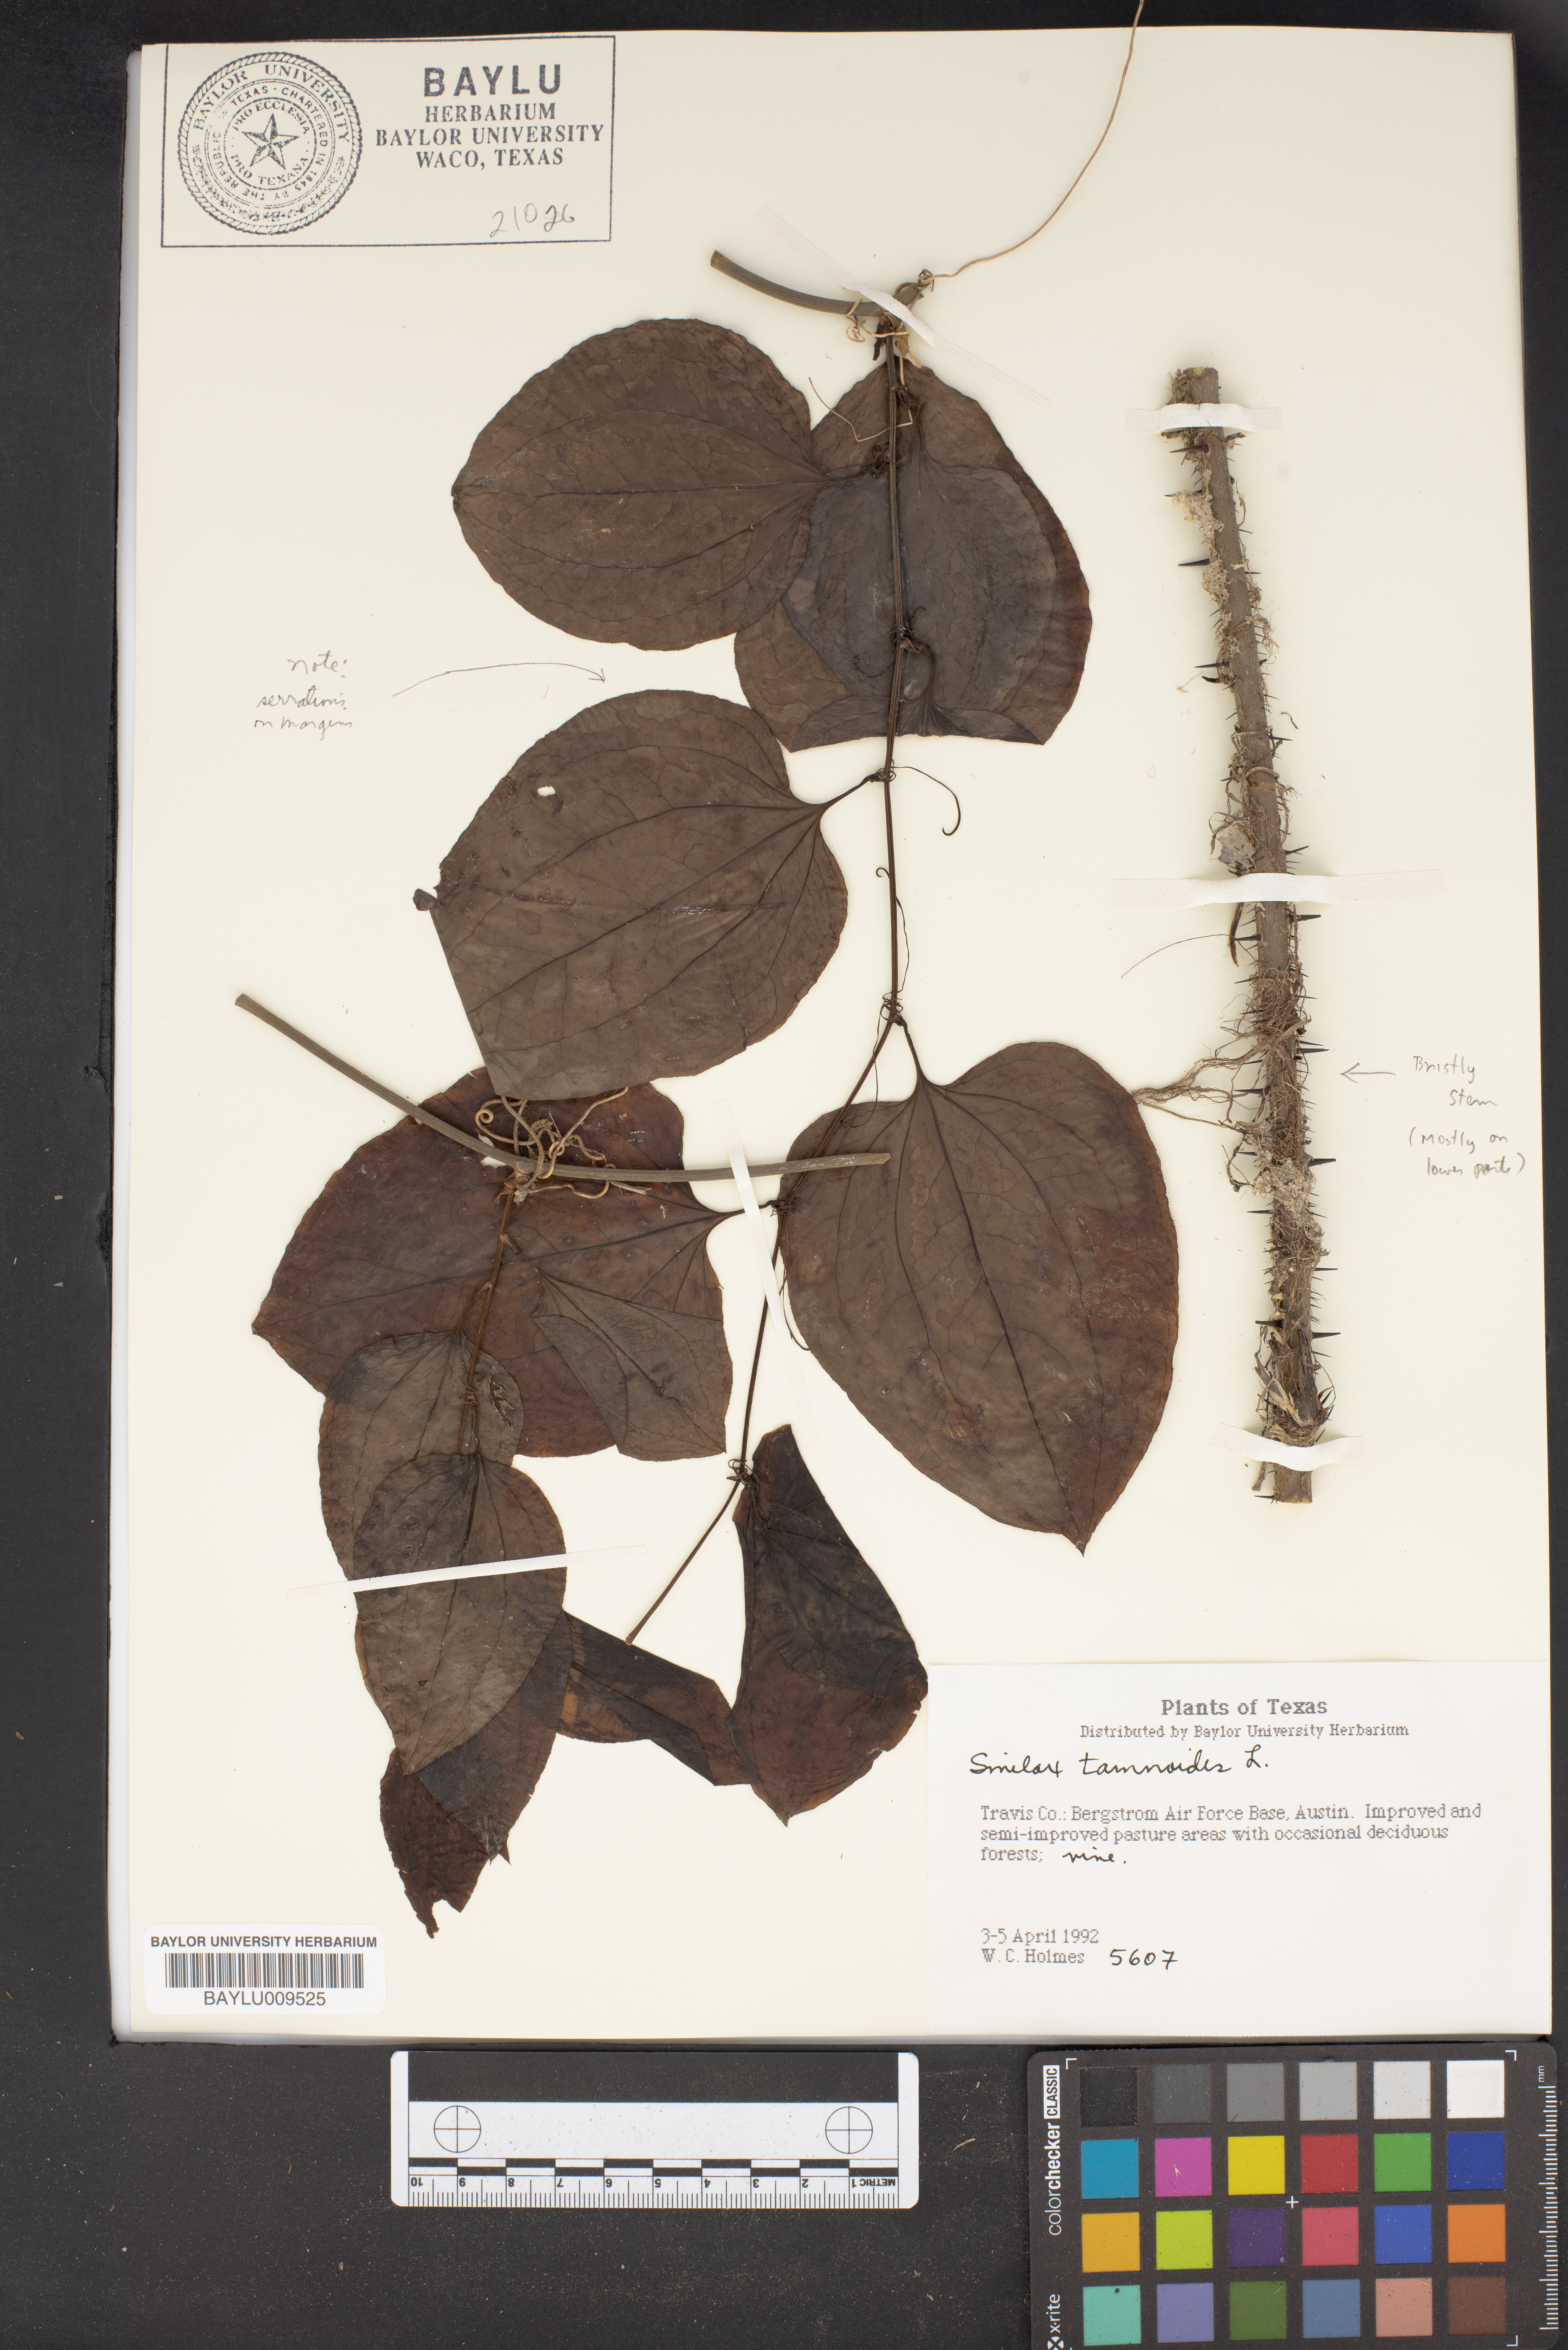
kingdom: Plantae
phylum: Tracheophyta
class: Liliopsida
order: Liliales
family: Smilacaceae
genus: Smilax
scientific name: Smilax tamnoides
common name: Hellfetter
